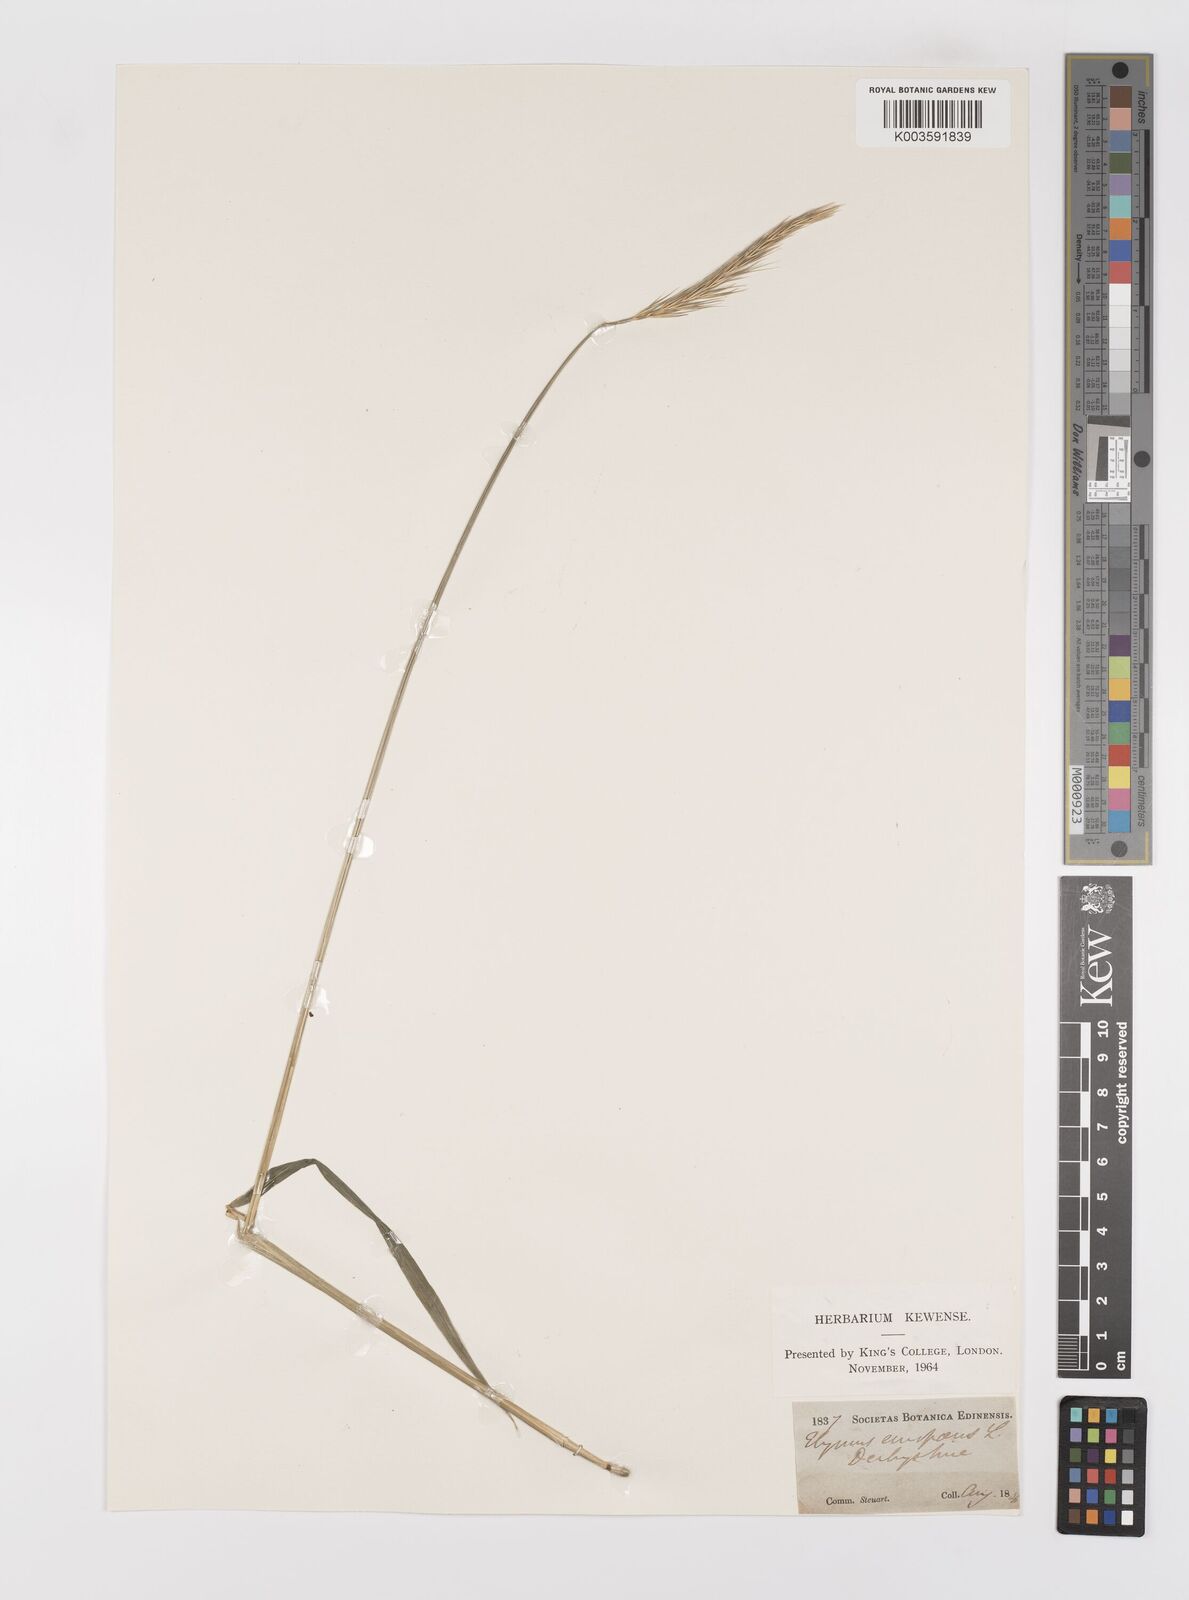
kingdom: Plantae
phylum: Tracheophyta
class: Liliopsida
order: Poales
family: Poaceae
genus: Hordelymus
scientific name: Hordelymus europaeus
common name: Wood-barley
